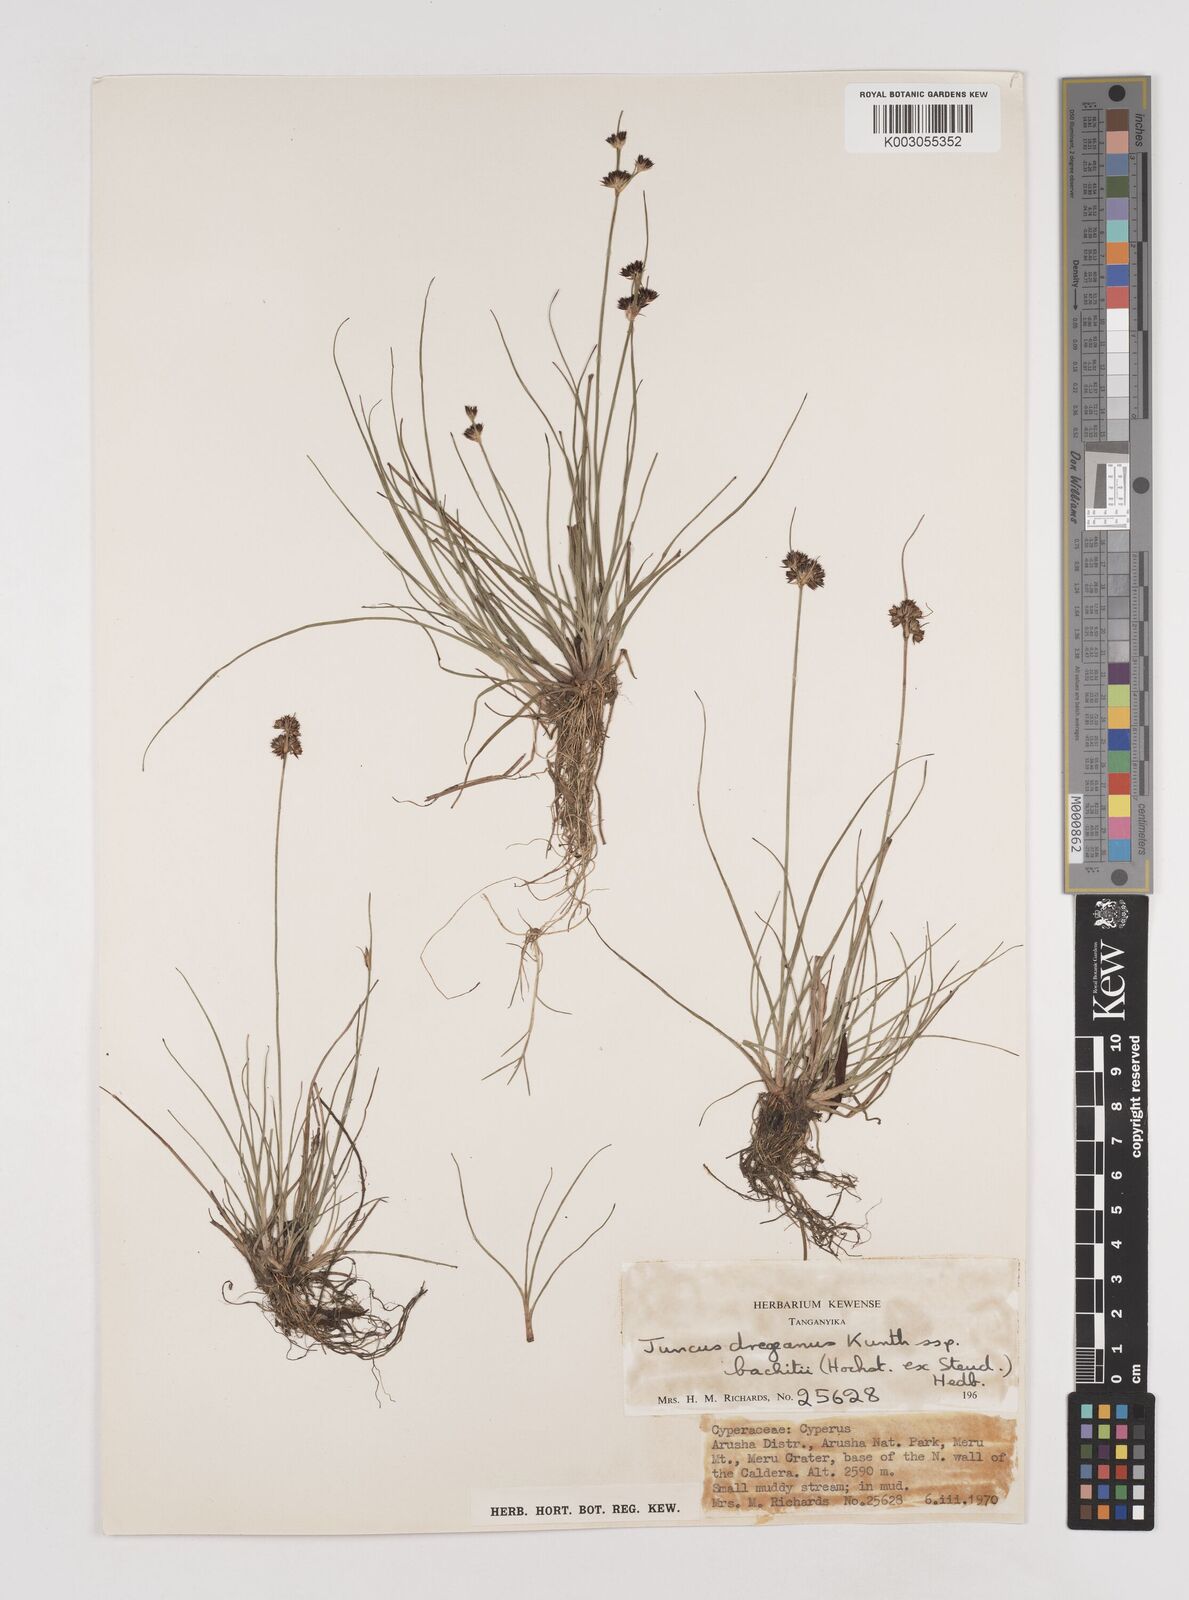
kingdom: Plantae
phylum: Tracheophyta
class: Liliopsida
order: Poales
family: Juncaceae
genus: Juncus
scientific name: Juncus dregeanus
